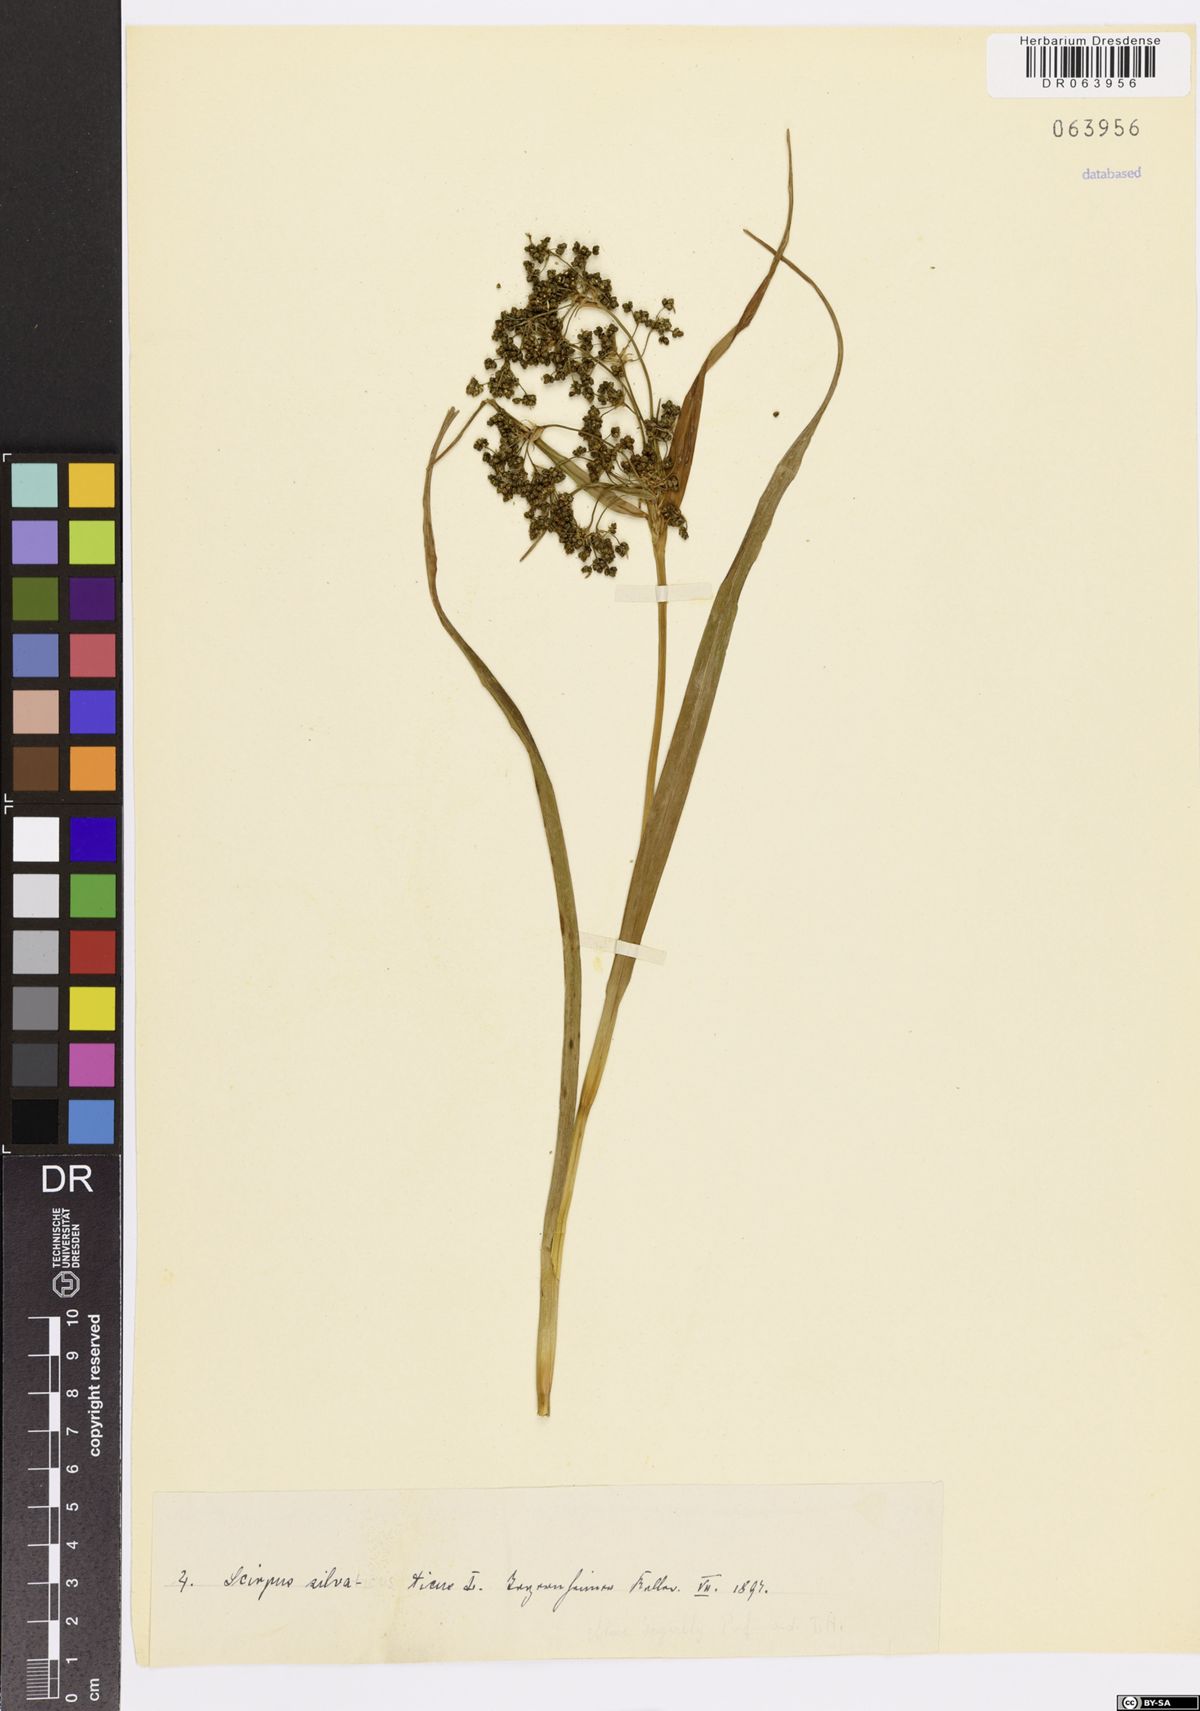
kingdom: Plantae
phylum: Tracheophyta
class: Liliopsida
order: Poales
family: Cyperaceae
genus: Scirpus
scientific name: Scirpus sylvaticus
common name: Wood club-rush
